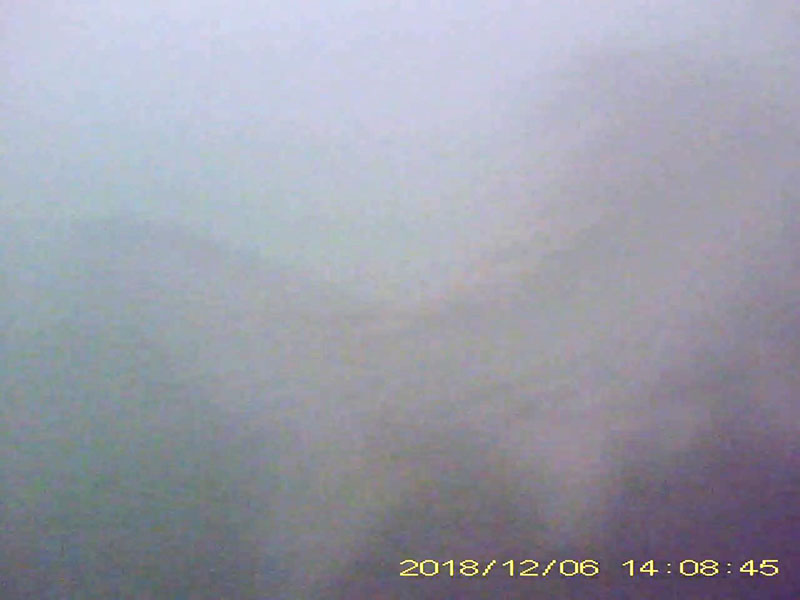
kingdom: Animalia
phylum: Chordata
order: Cypriniformes
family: Cyprinidae
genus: Carassius
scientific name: Carassius
